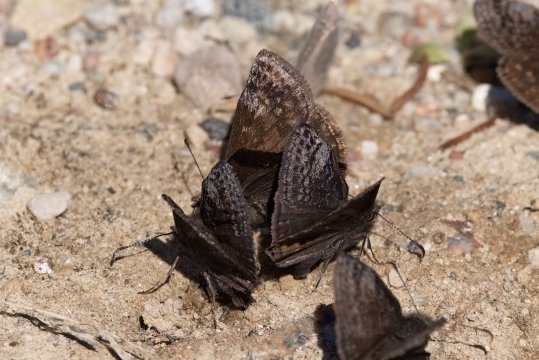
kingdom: Animalia
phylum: Arthropoda
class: Insecta
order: Lepidoptera
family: Hesperiidae
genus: Erynnis
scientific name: Erynnis icelus
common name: Dreamy Duskywing
